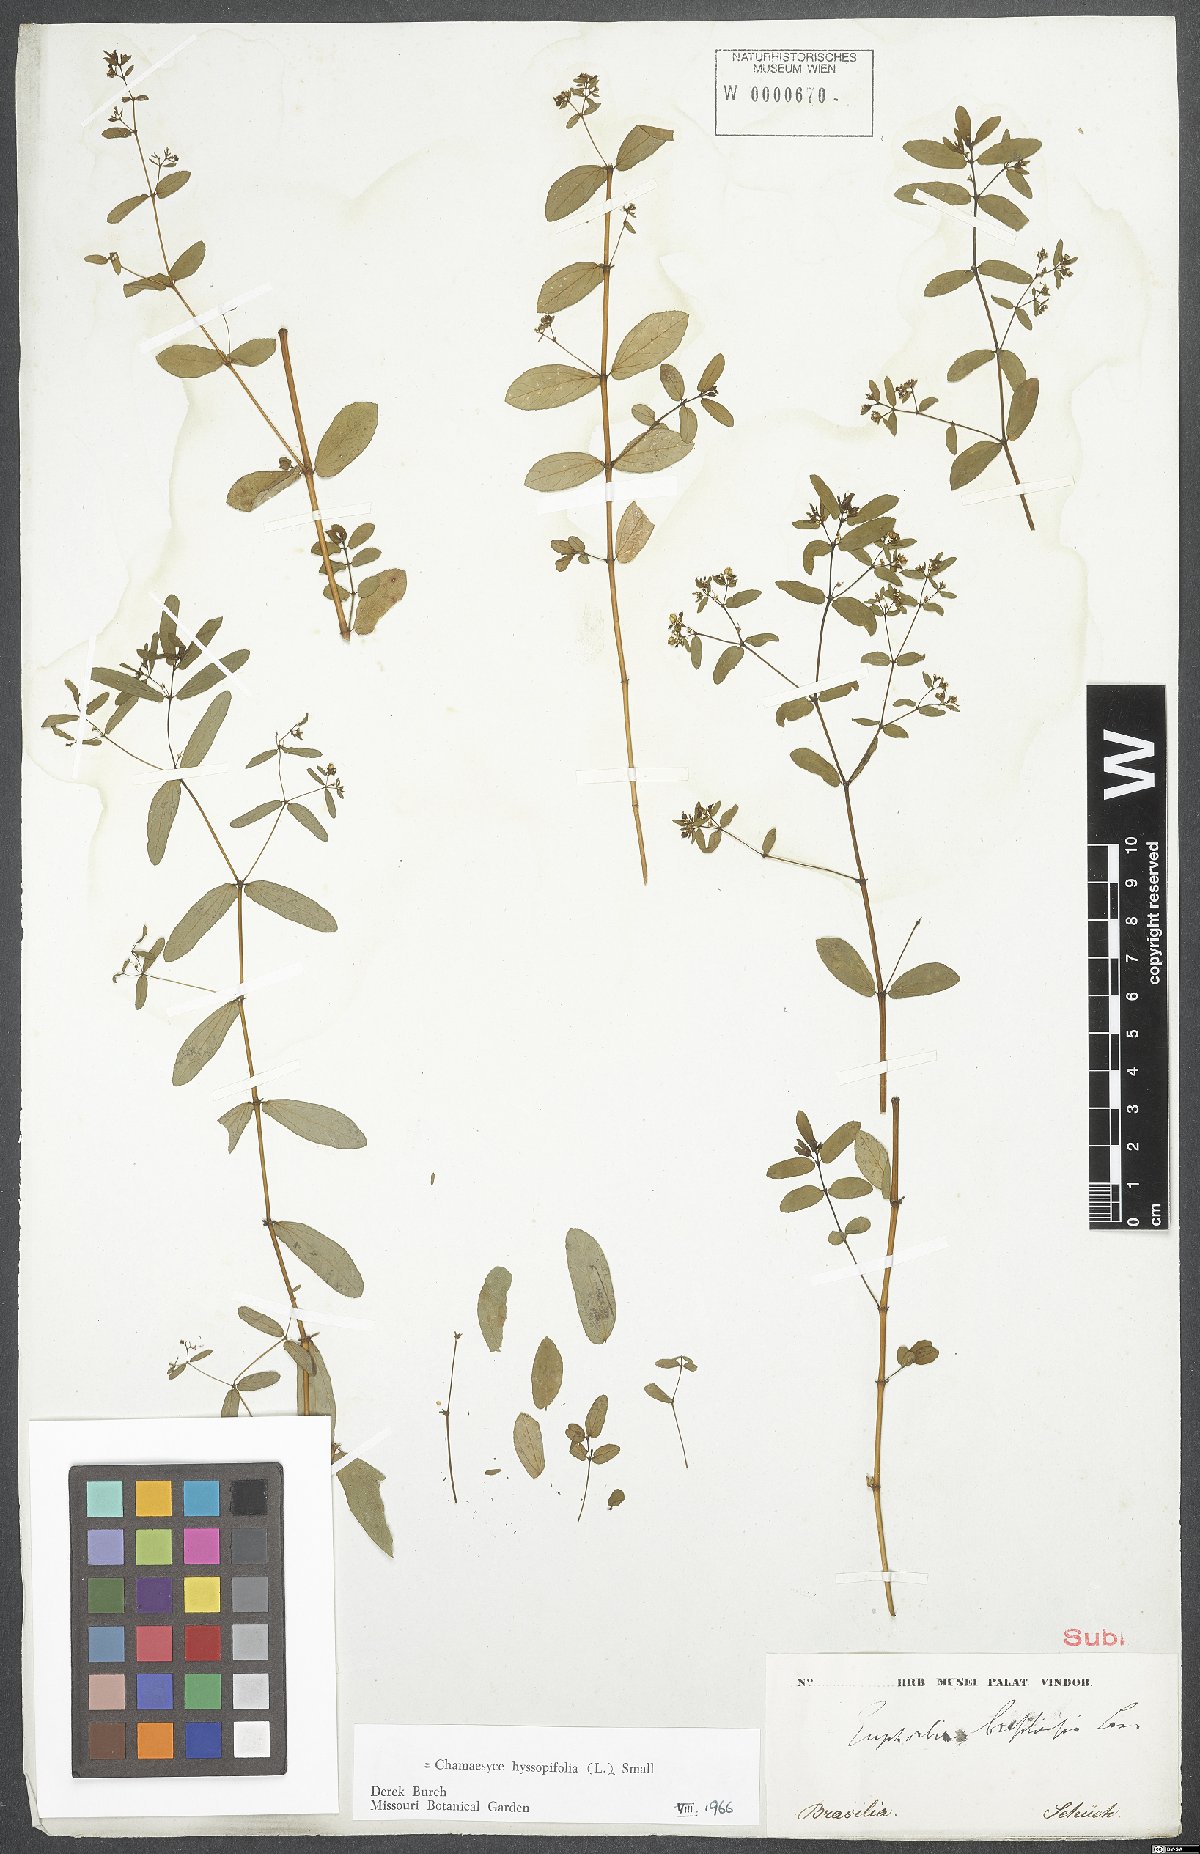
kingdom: Plantae
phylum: Tracheophyta
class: Magnoliopsida
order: Malpighiales
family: Euphorbiaceae
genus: Euphorbia
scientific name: Euphorbia hyssopifolia
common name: Hyssopleaf sandmat
